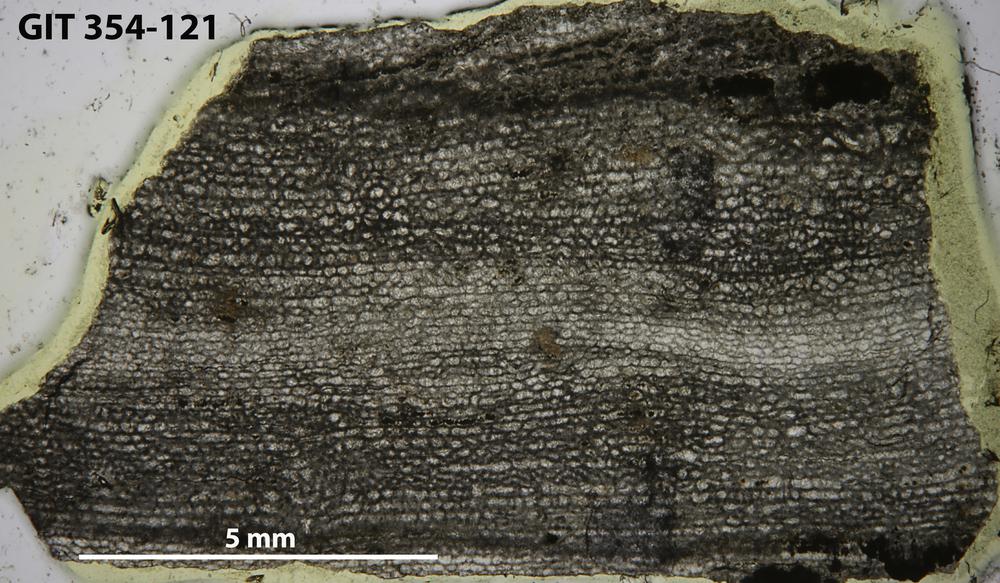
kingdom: Animalia
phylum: Porifera
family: Clathrodictyidae
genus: Clathrodictyon
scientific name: Clathrodictyon boreale
